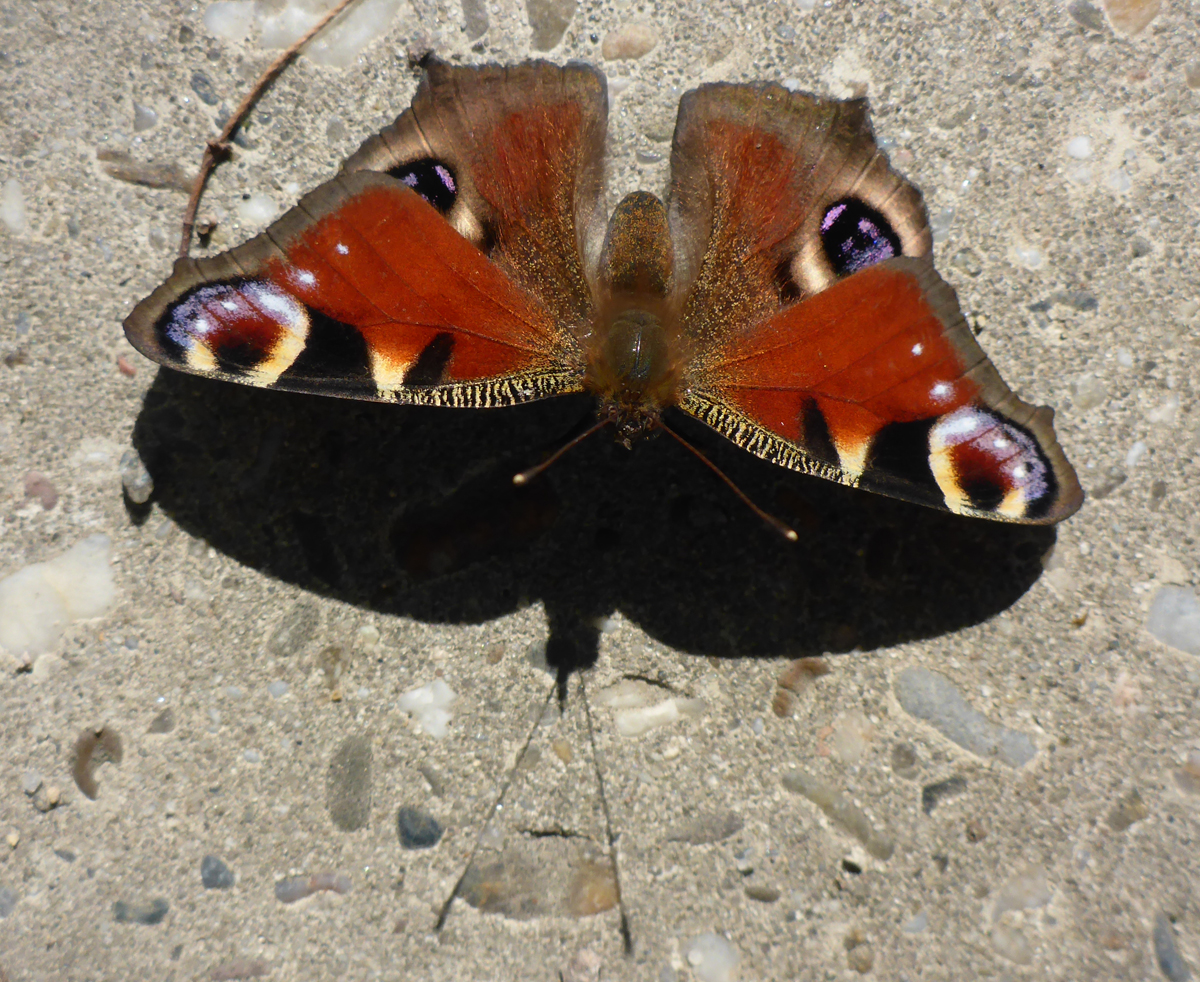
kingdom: Animalia
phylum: Arthropoda
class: Insecta
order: Lepidoptera
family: Nymphalidae
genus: Aglais
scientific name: Aglais io
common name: Peacock
